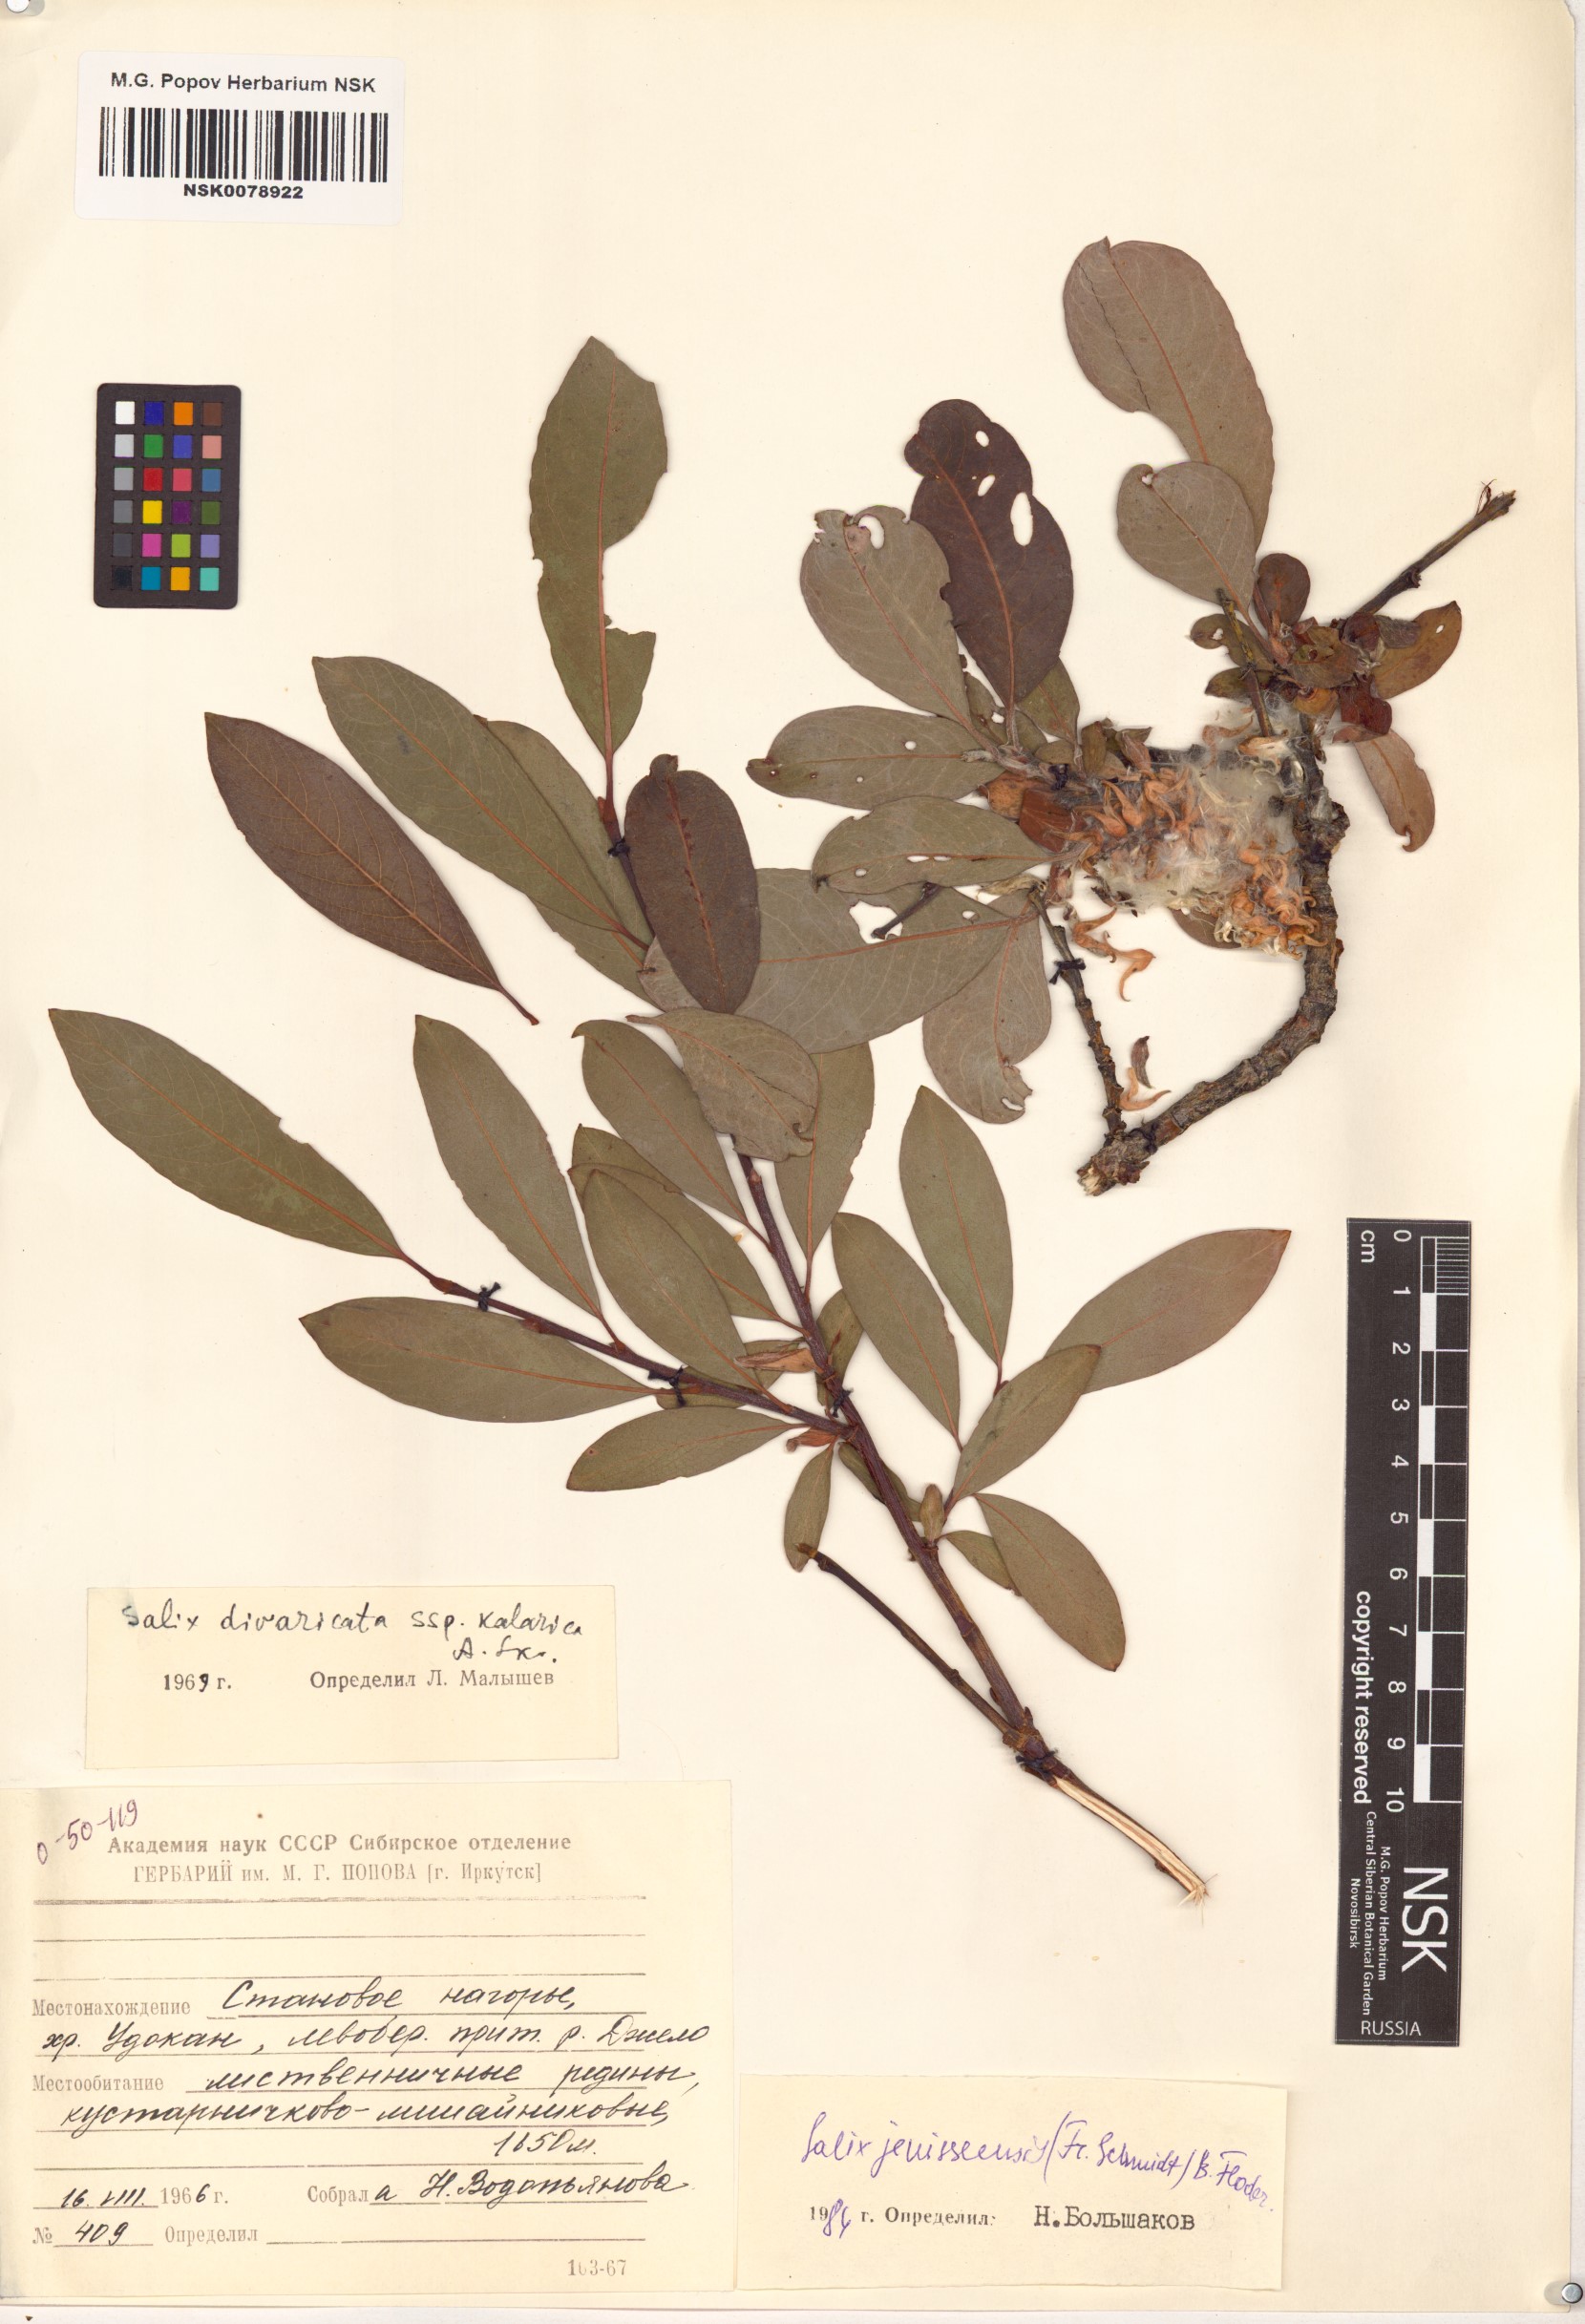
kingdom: Plantae
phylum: Tracheophyta
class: Magnoliopsida
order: Malpighiales
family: Salicaceae
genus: Salix
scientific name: Salix jenisseensis
